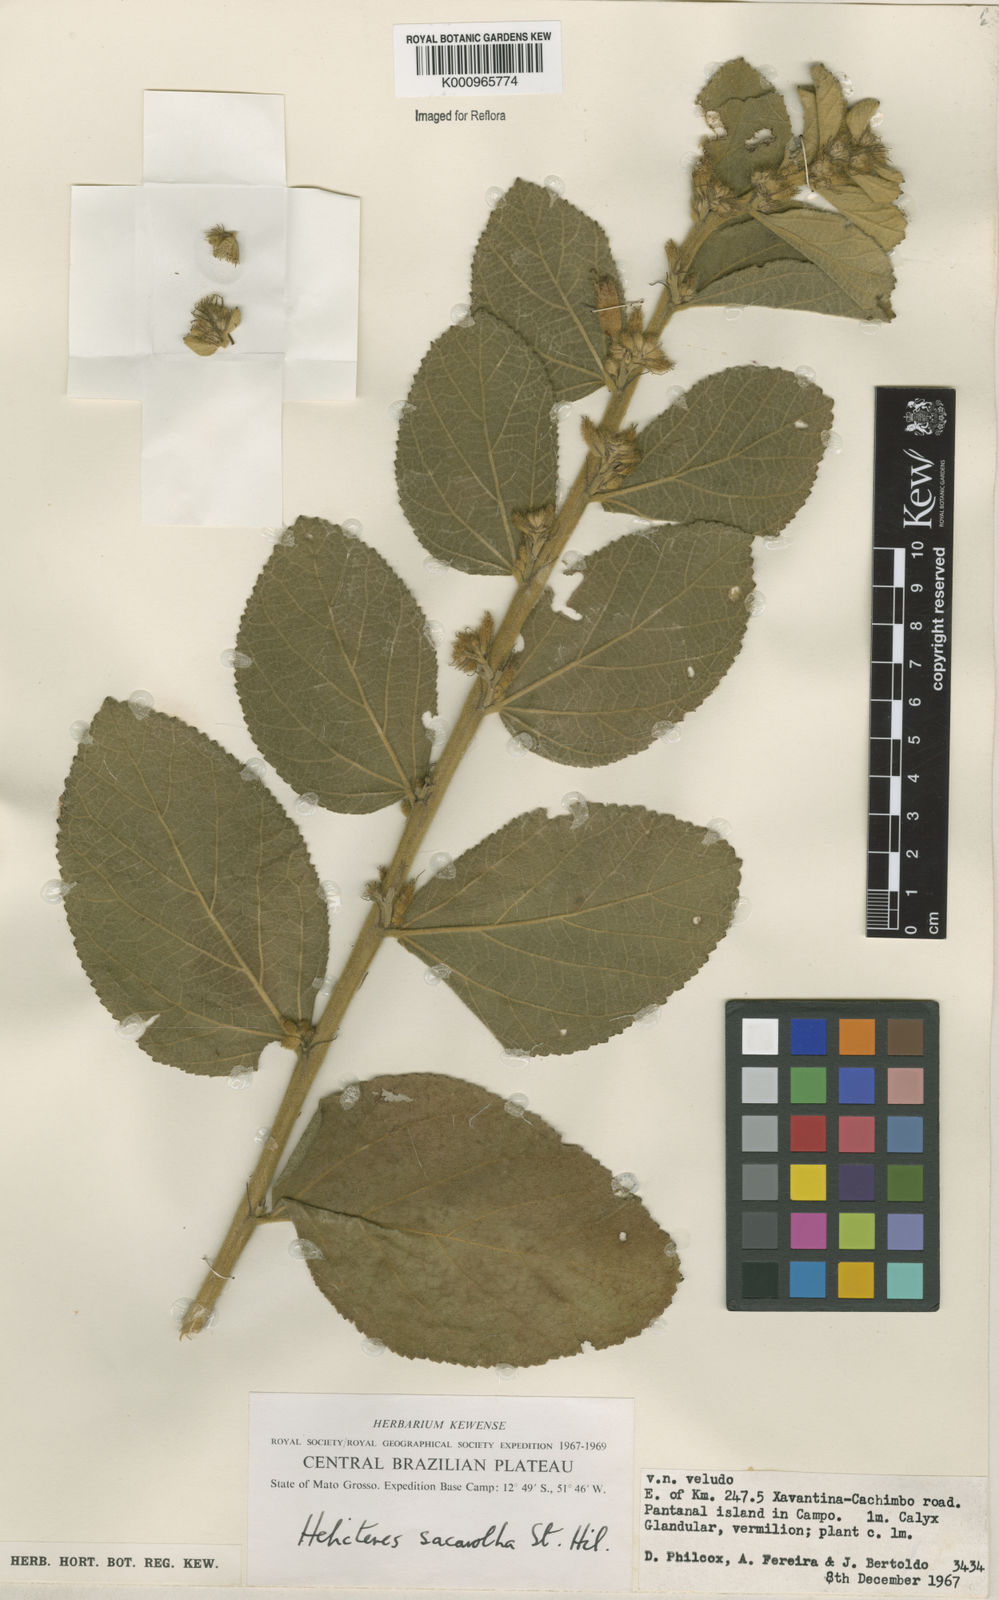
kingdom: Plantae
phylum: Tracheophyta
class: Magnoliopsida
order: Malvales
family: Malvaceae
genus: Helicteres
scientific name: Helicteres
